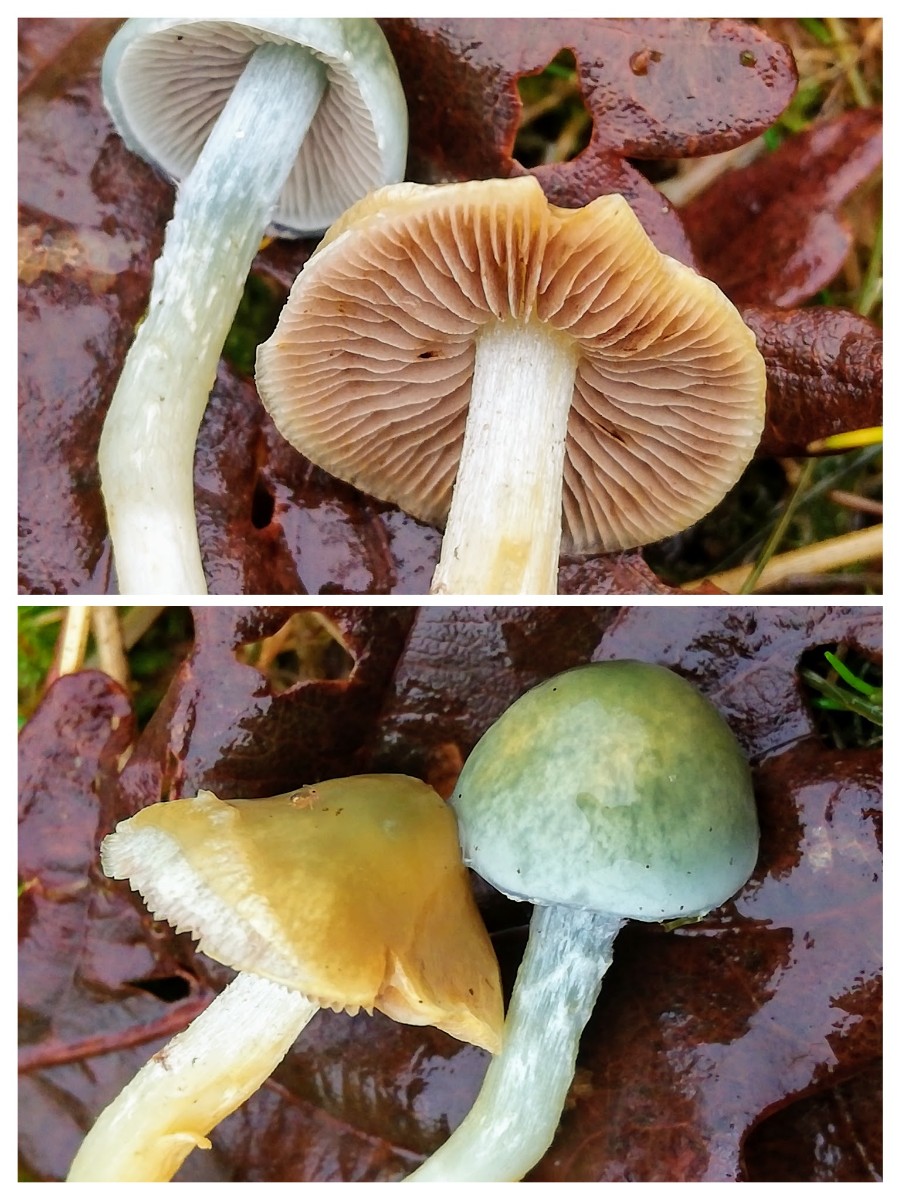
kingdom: Fungi
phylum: Basidiomycota
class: Agaricomycetes
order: Agaricales
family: Strophariaceae
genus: Stropharia
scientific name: Stropharia cyanea
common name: blågrøn bredblad
